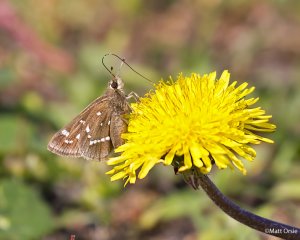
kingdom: Animalia
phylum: Arthropoda
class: Insecta
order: Lepidoptera
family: Hesperiidae
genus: Atrytonopsis
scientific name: Atrytonopsis loammi
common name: Loammi Skipper
